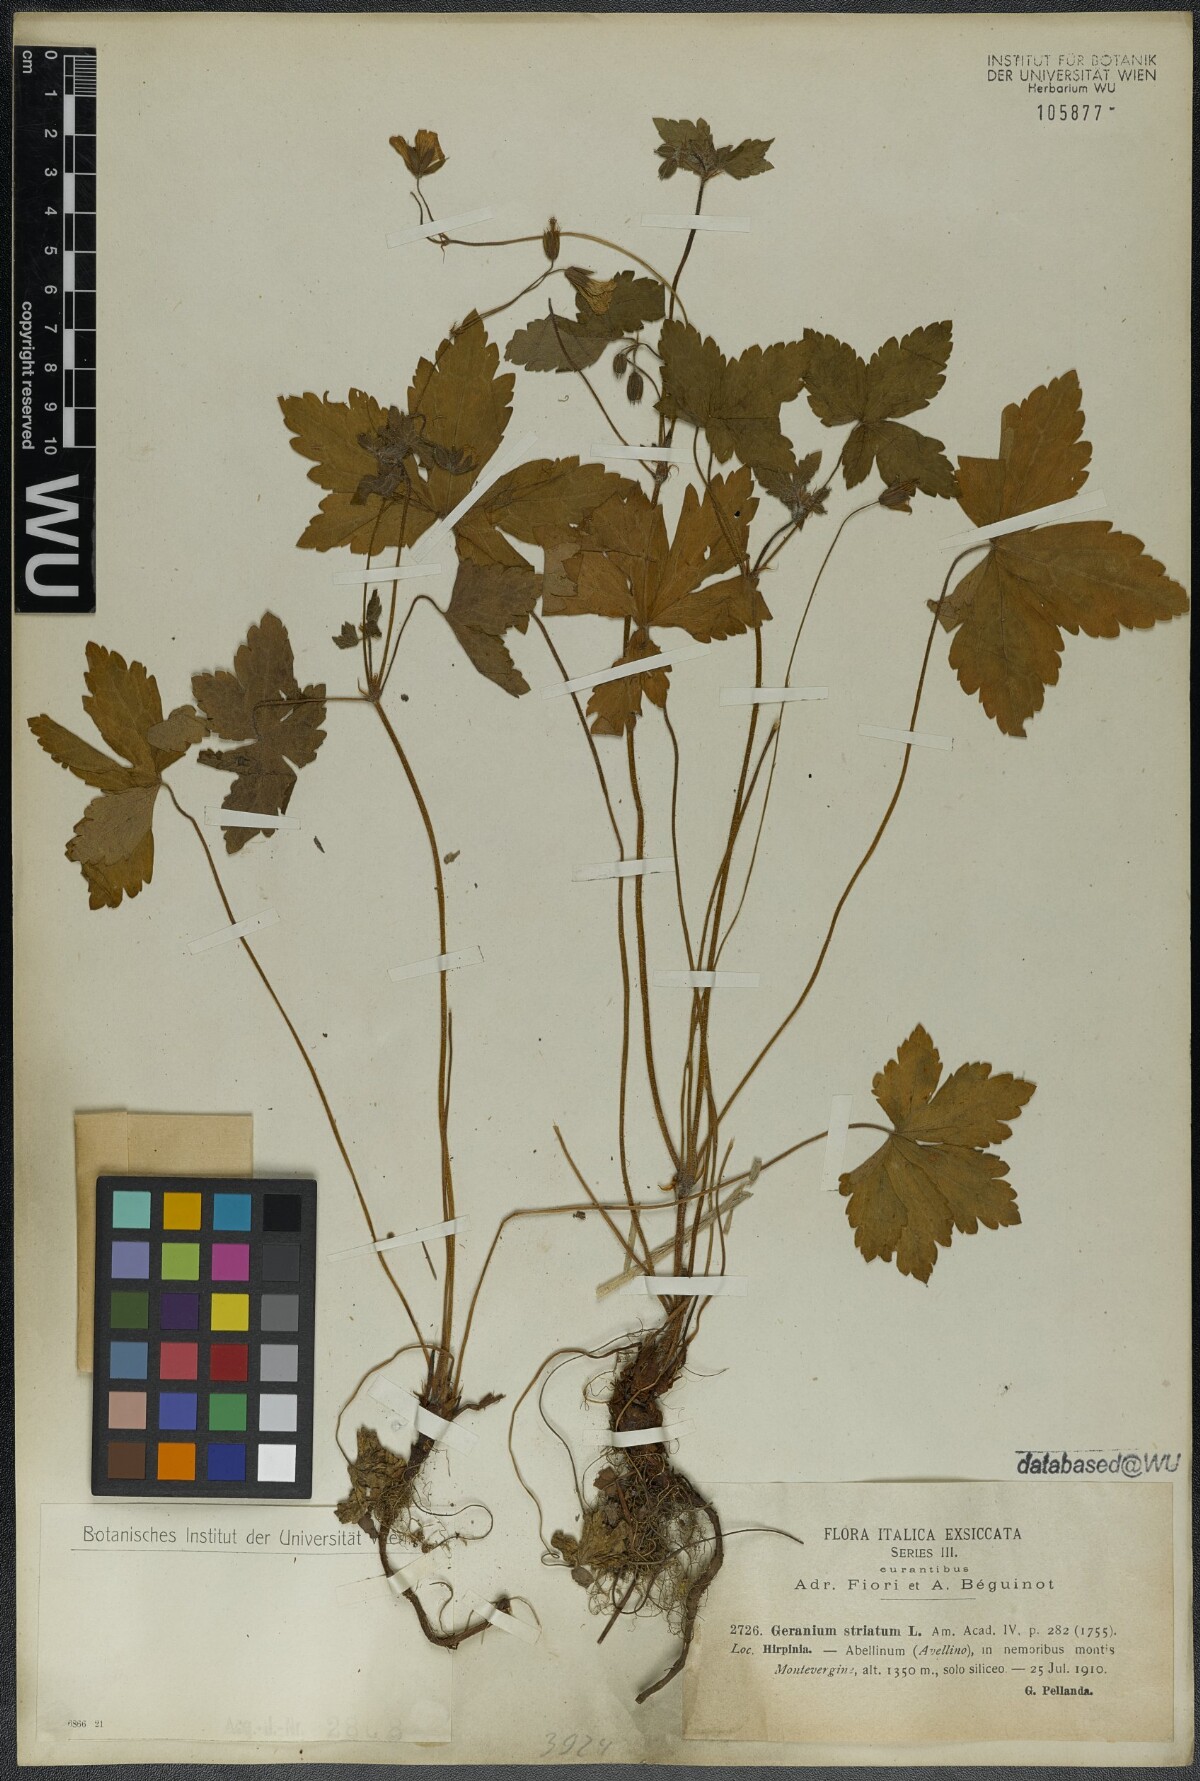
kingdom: Plantae
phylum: Tracheophyta
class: Magnoliopsida
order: Geraniales
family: Geraniaceae
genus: Geranium
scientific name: Geranium versicolor
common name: Pencilled crane's-bill
